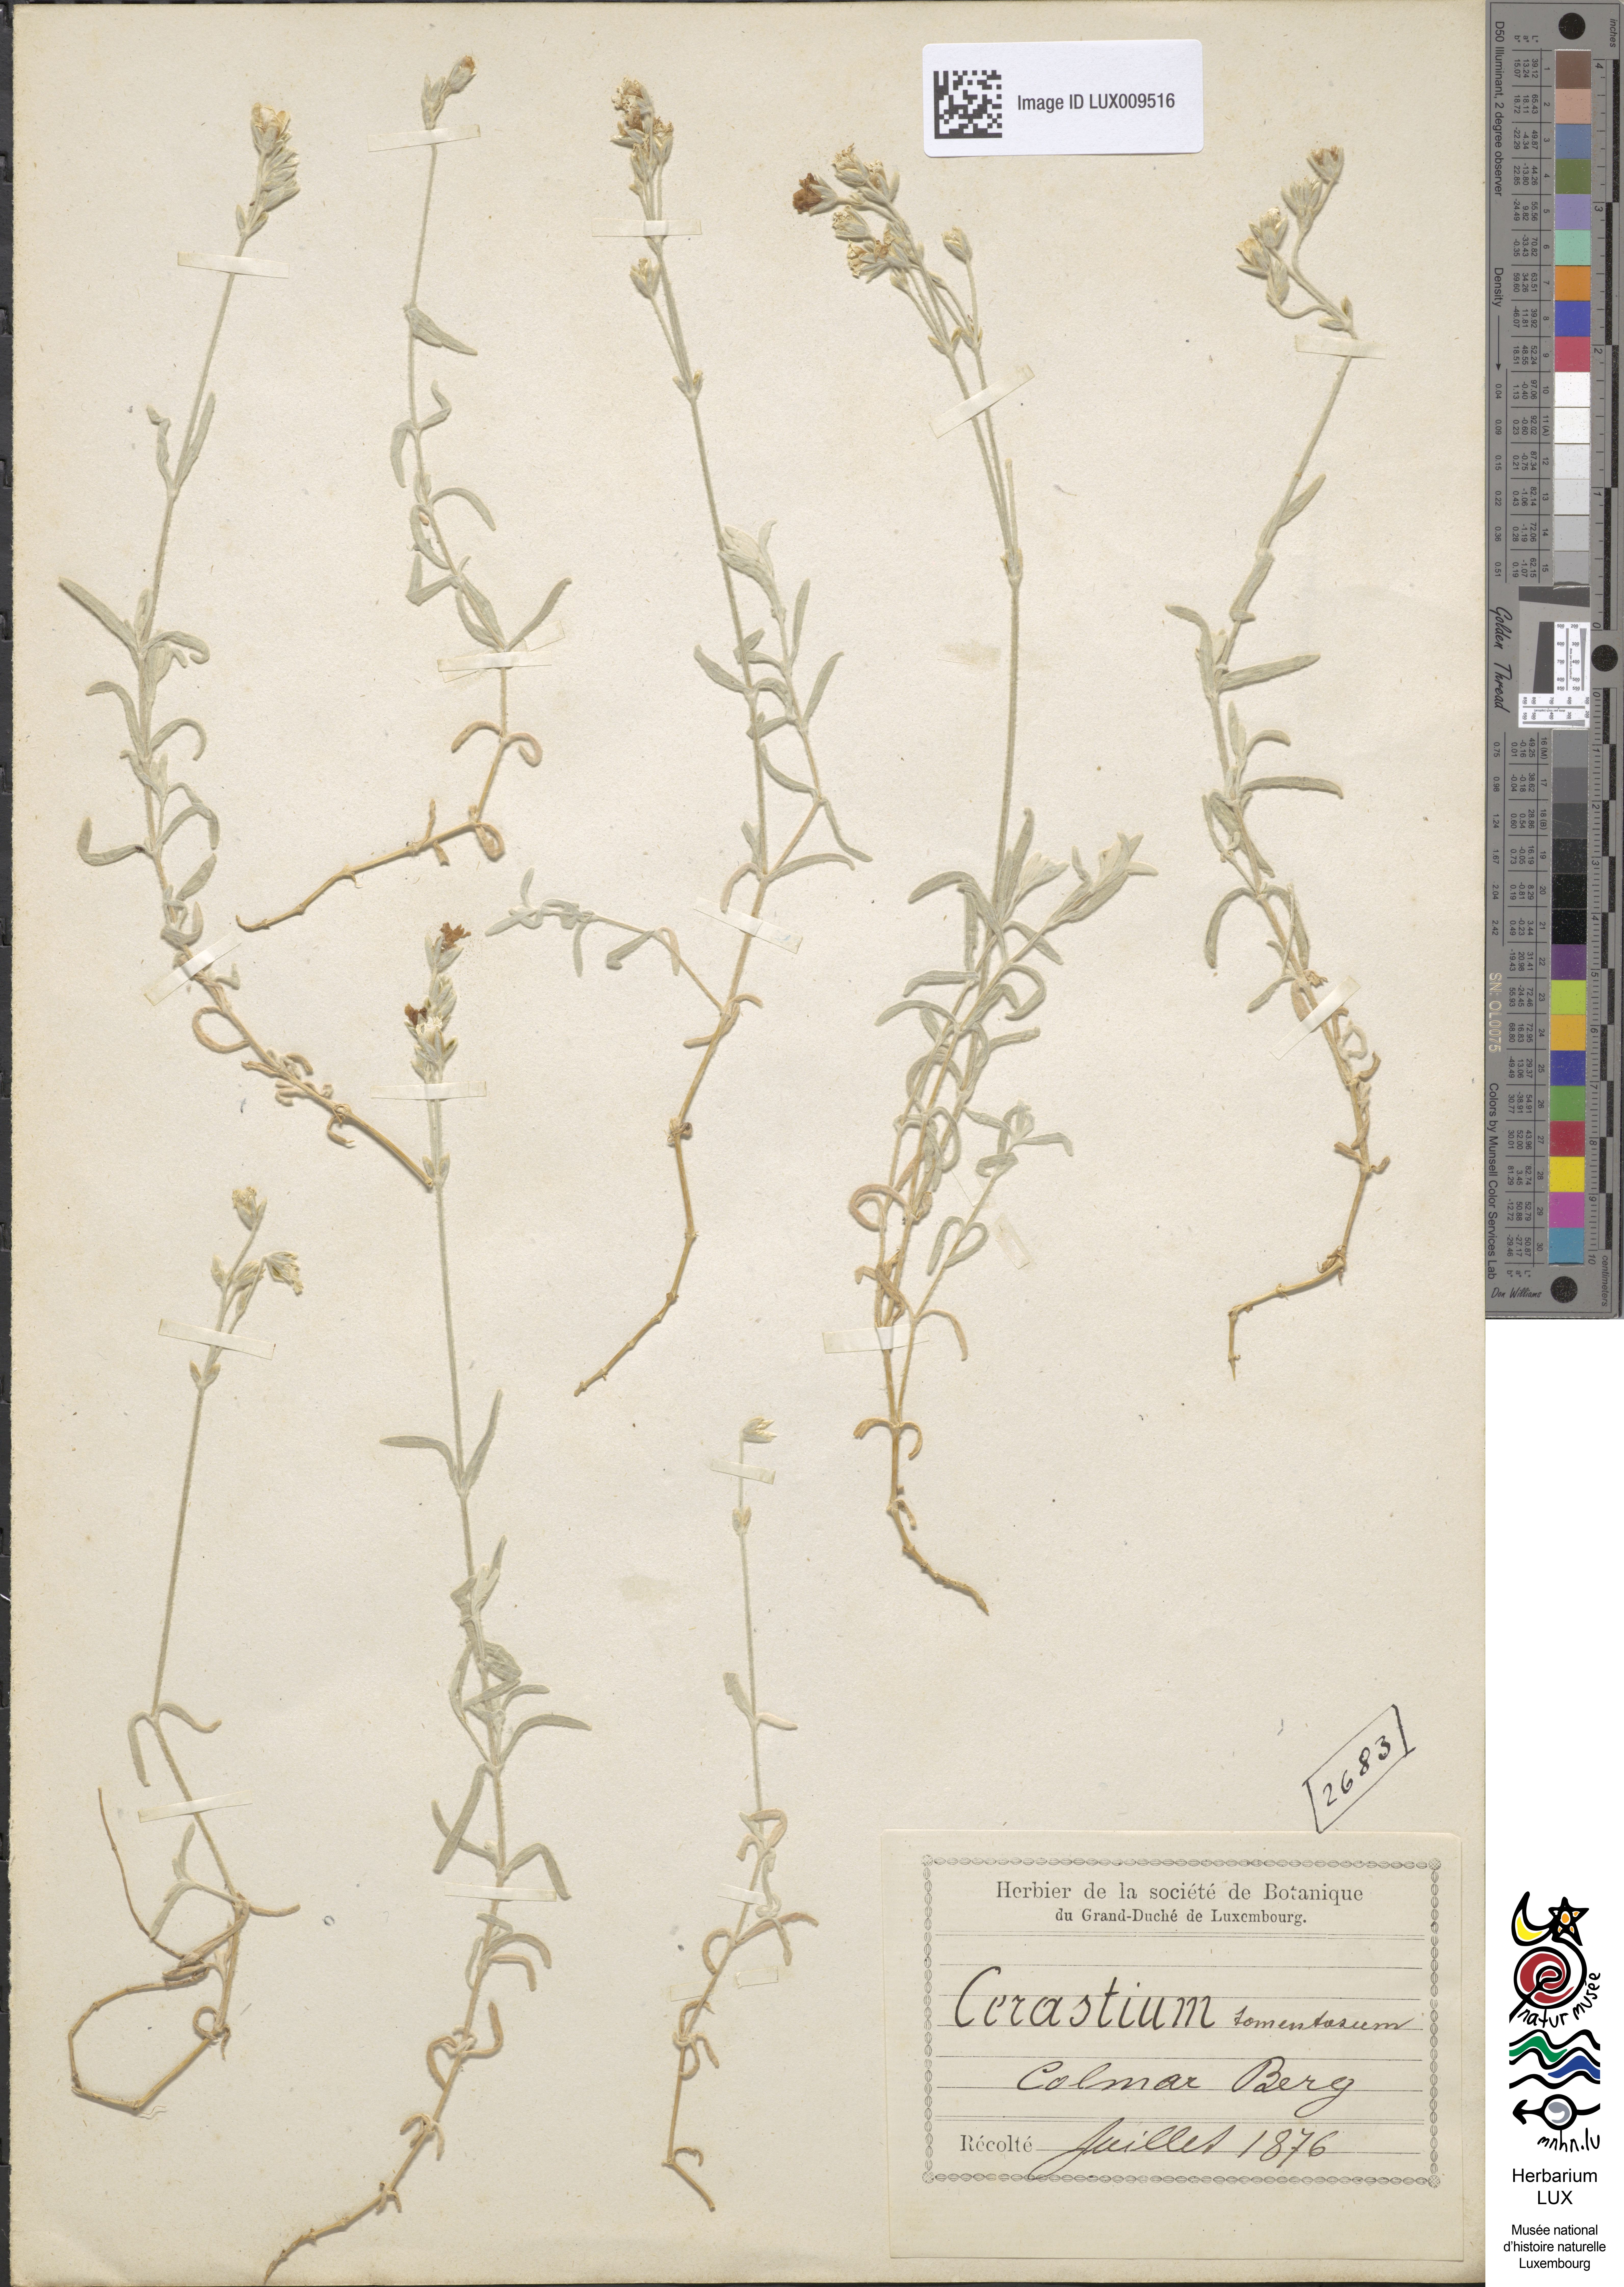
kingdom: Plantae
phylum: Tracheophyta
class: Magnoliopsida
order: Caryophyllales
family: Caryophyllaceae
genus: Cerastium
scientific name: Cerastium tomentosum
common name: Snow-in-summer
